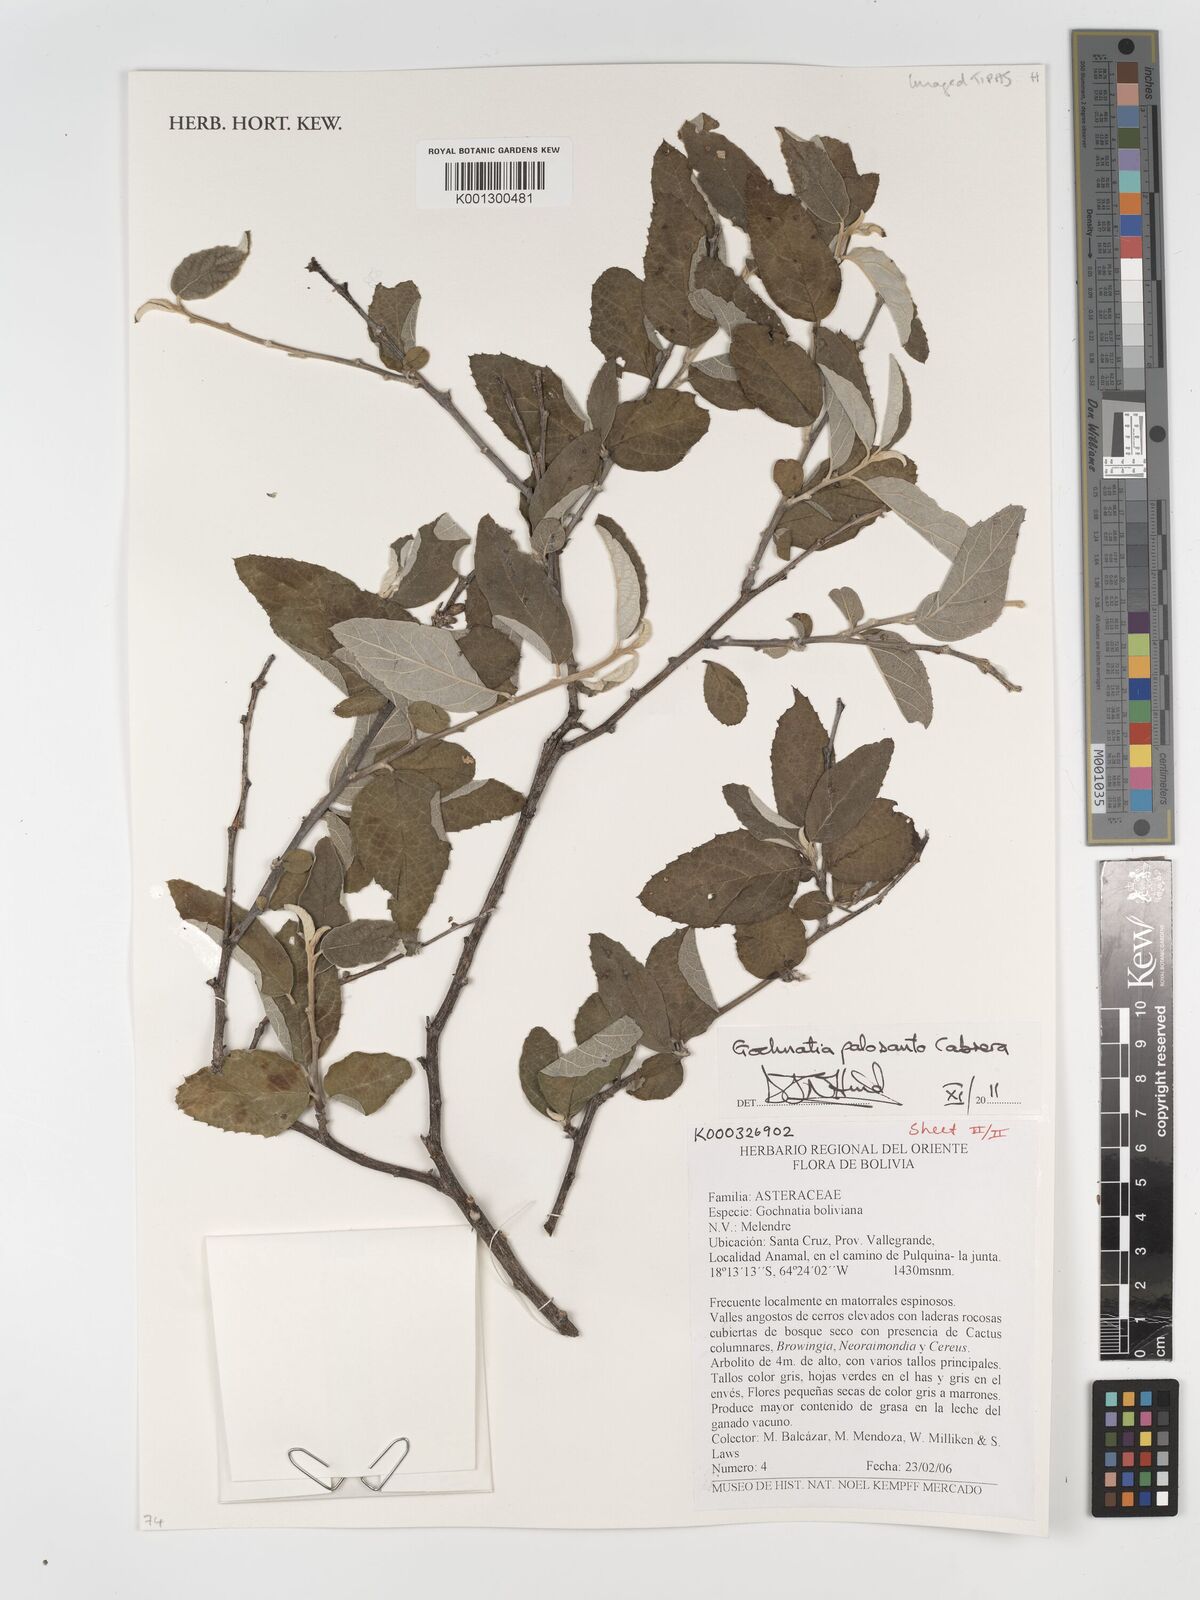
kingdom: Plantae
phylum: Tracheophyta
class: Magnoliopsida
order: Asterales
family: Asteraceae
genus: Gochnatia
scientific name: Gochnatia palosanto
